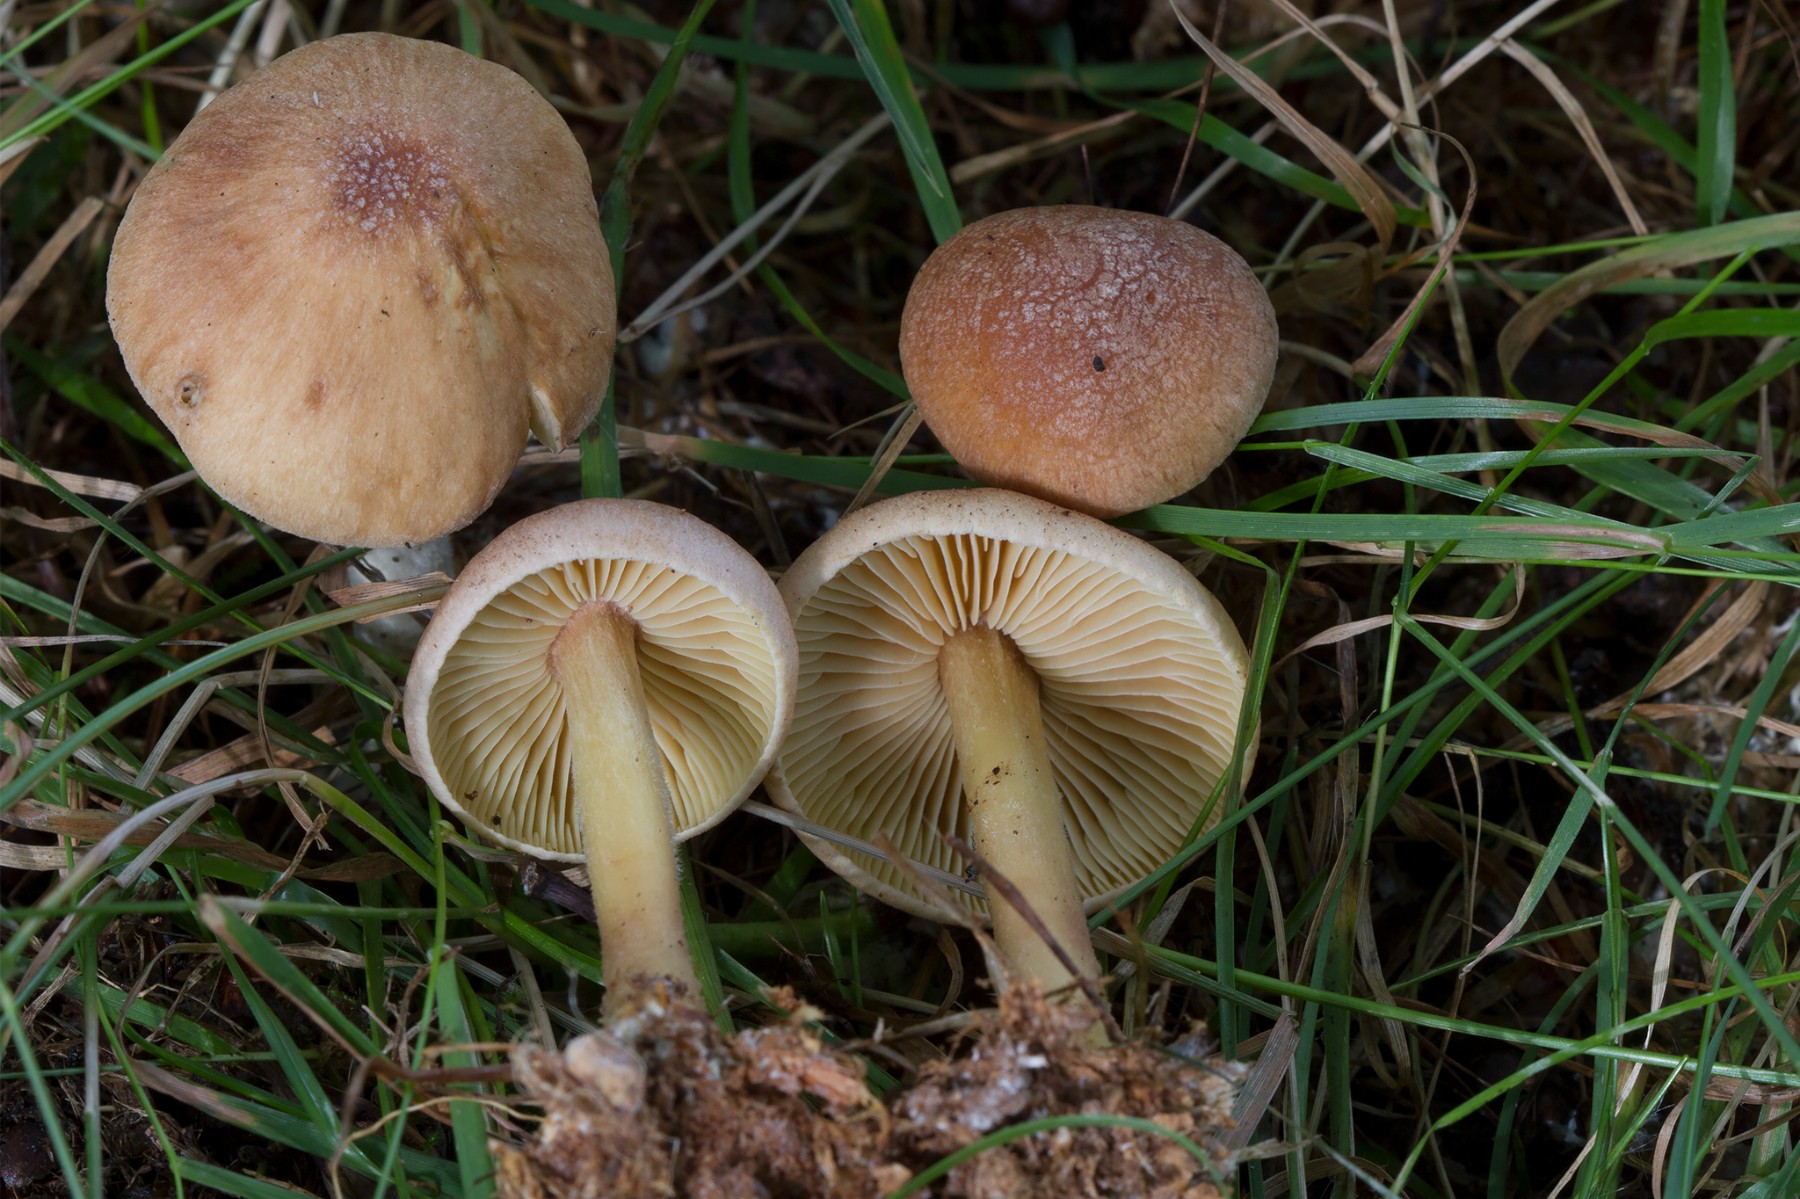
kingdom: Fungi
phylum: Basidiomycota
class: Agaricomycetes
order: Agaricales
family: Omphalotaceae
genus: Collybiopsis
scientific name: Collybiopsis peronata
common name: bestøvlet fladhat
